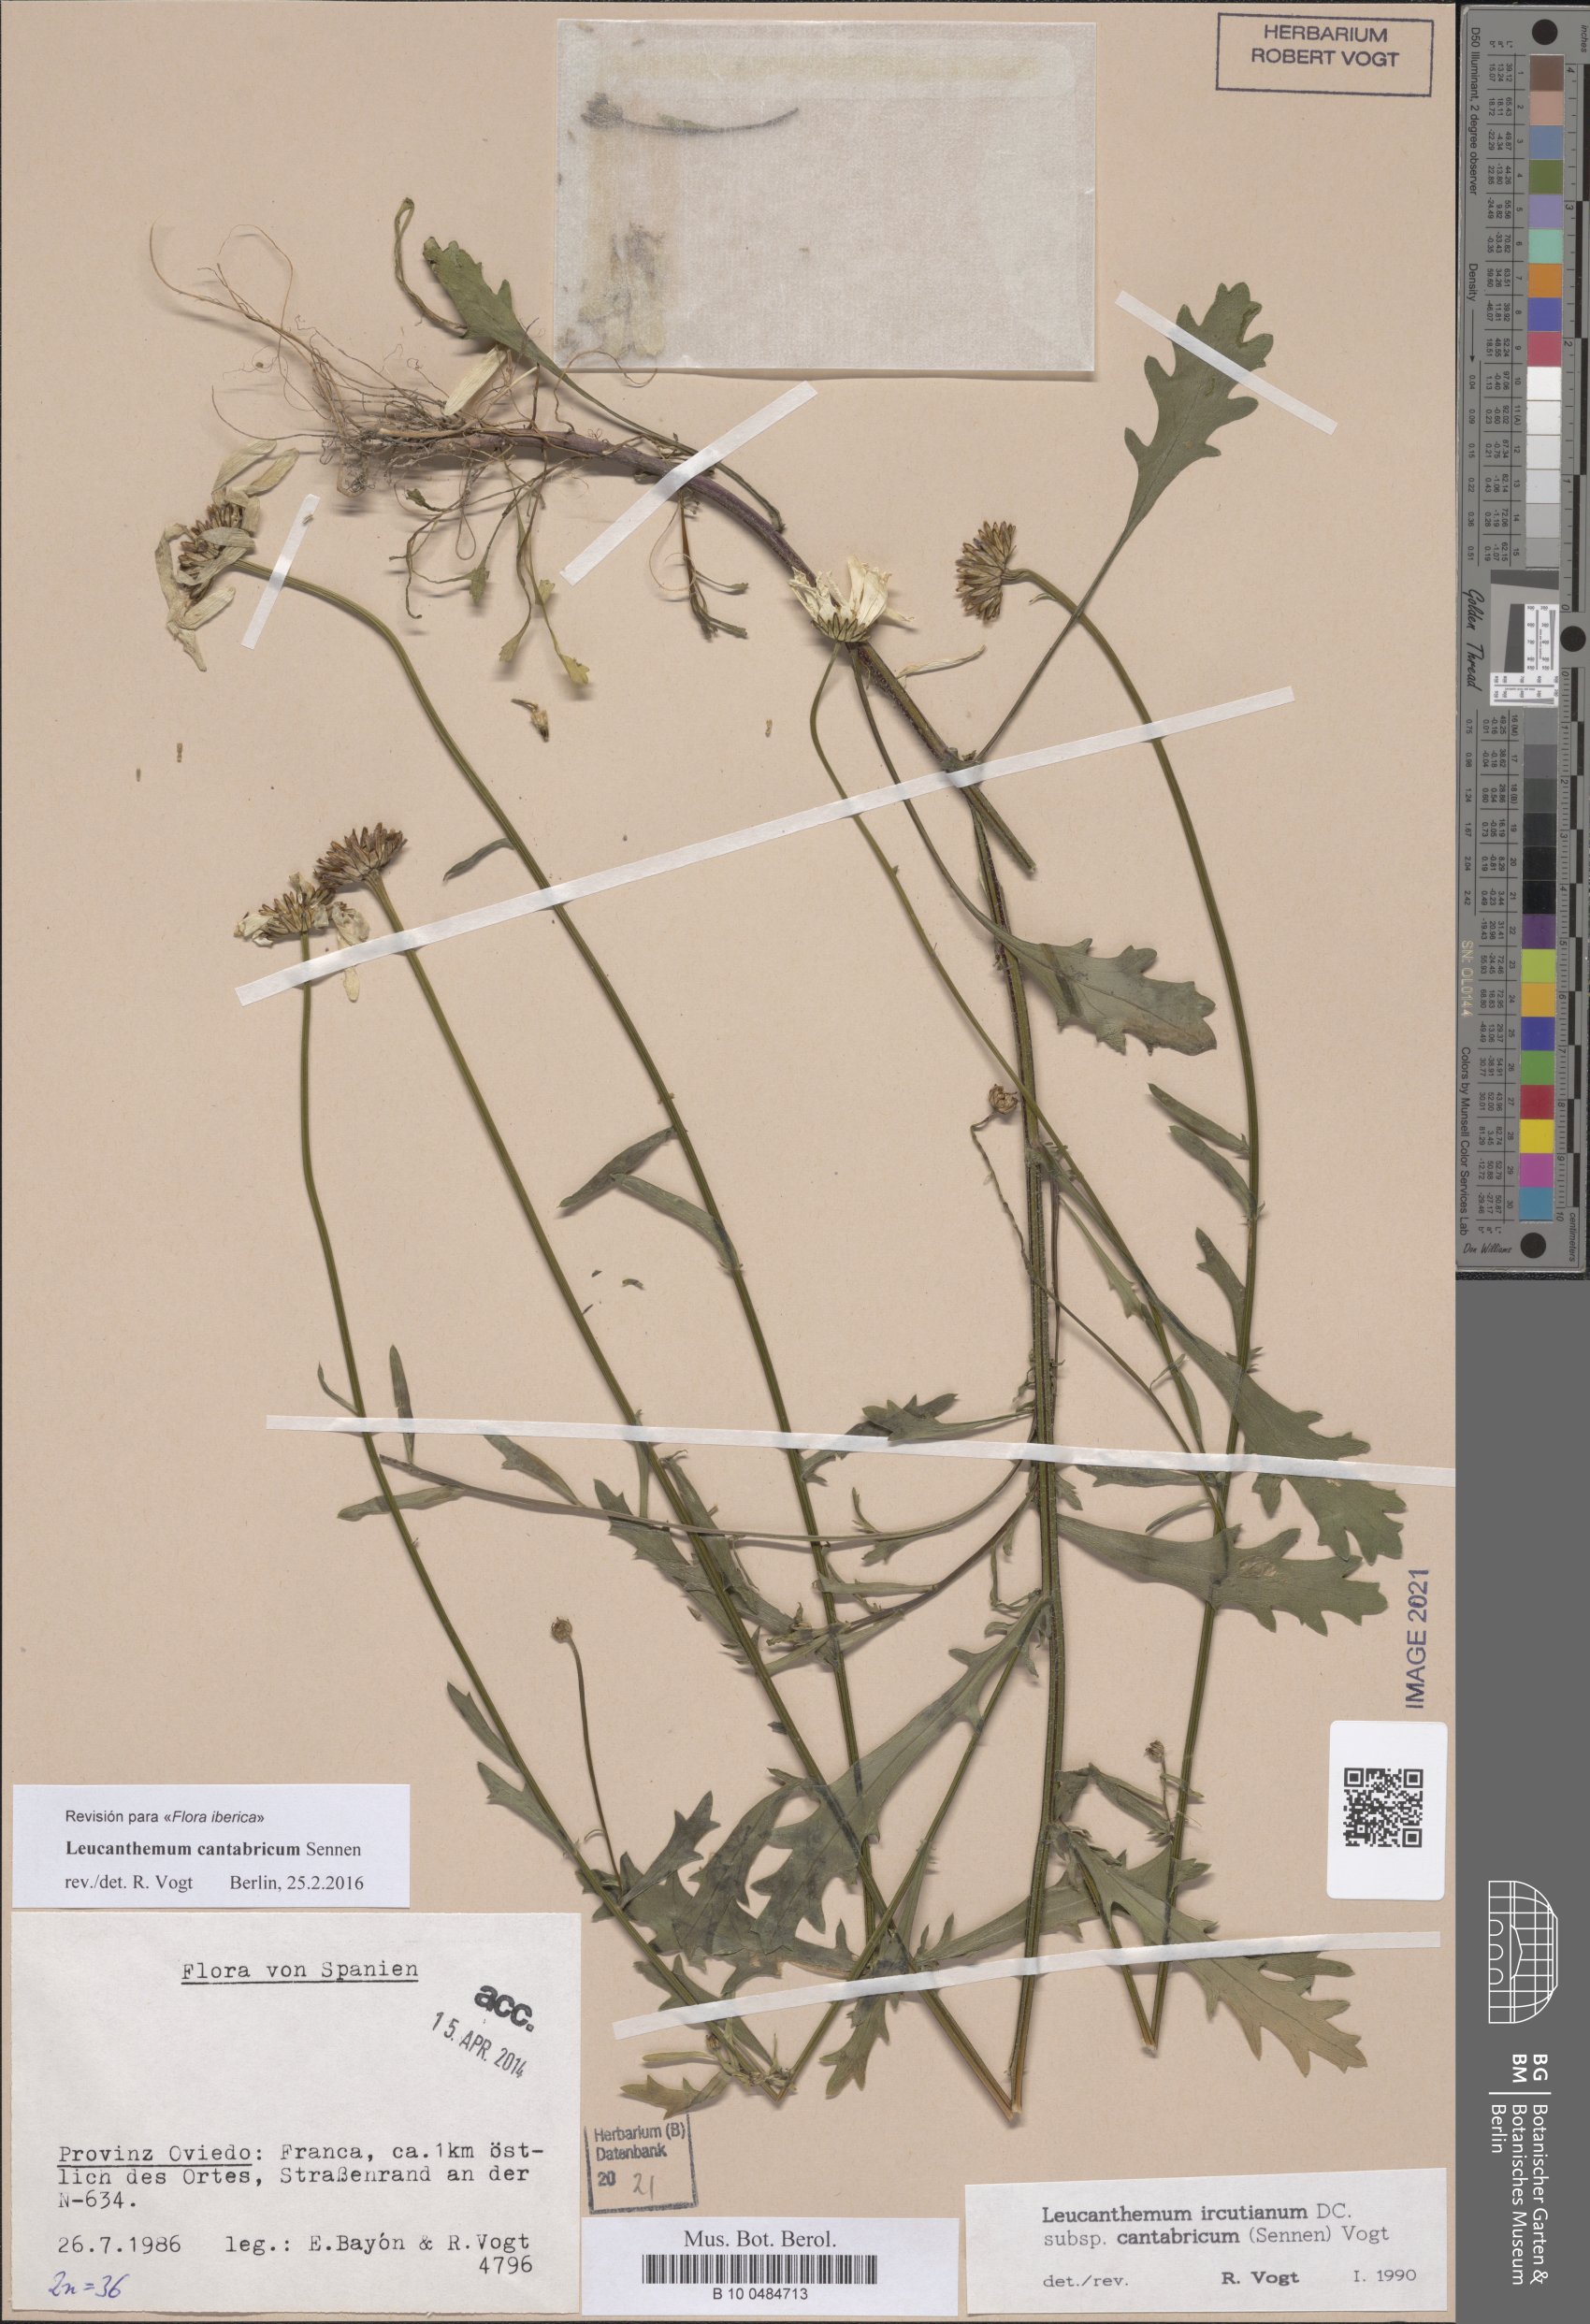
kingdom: Plantae
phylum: Tracheophyta
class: Magnoliopsida
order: Asterales
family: Asteraceae
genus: Leucanthemum
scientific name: Leucanthemum cantabricum
